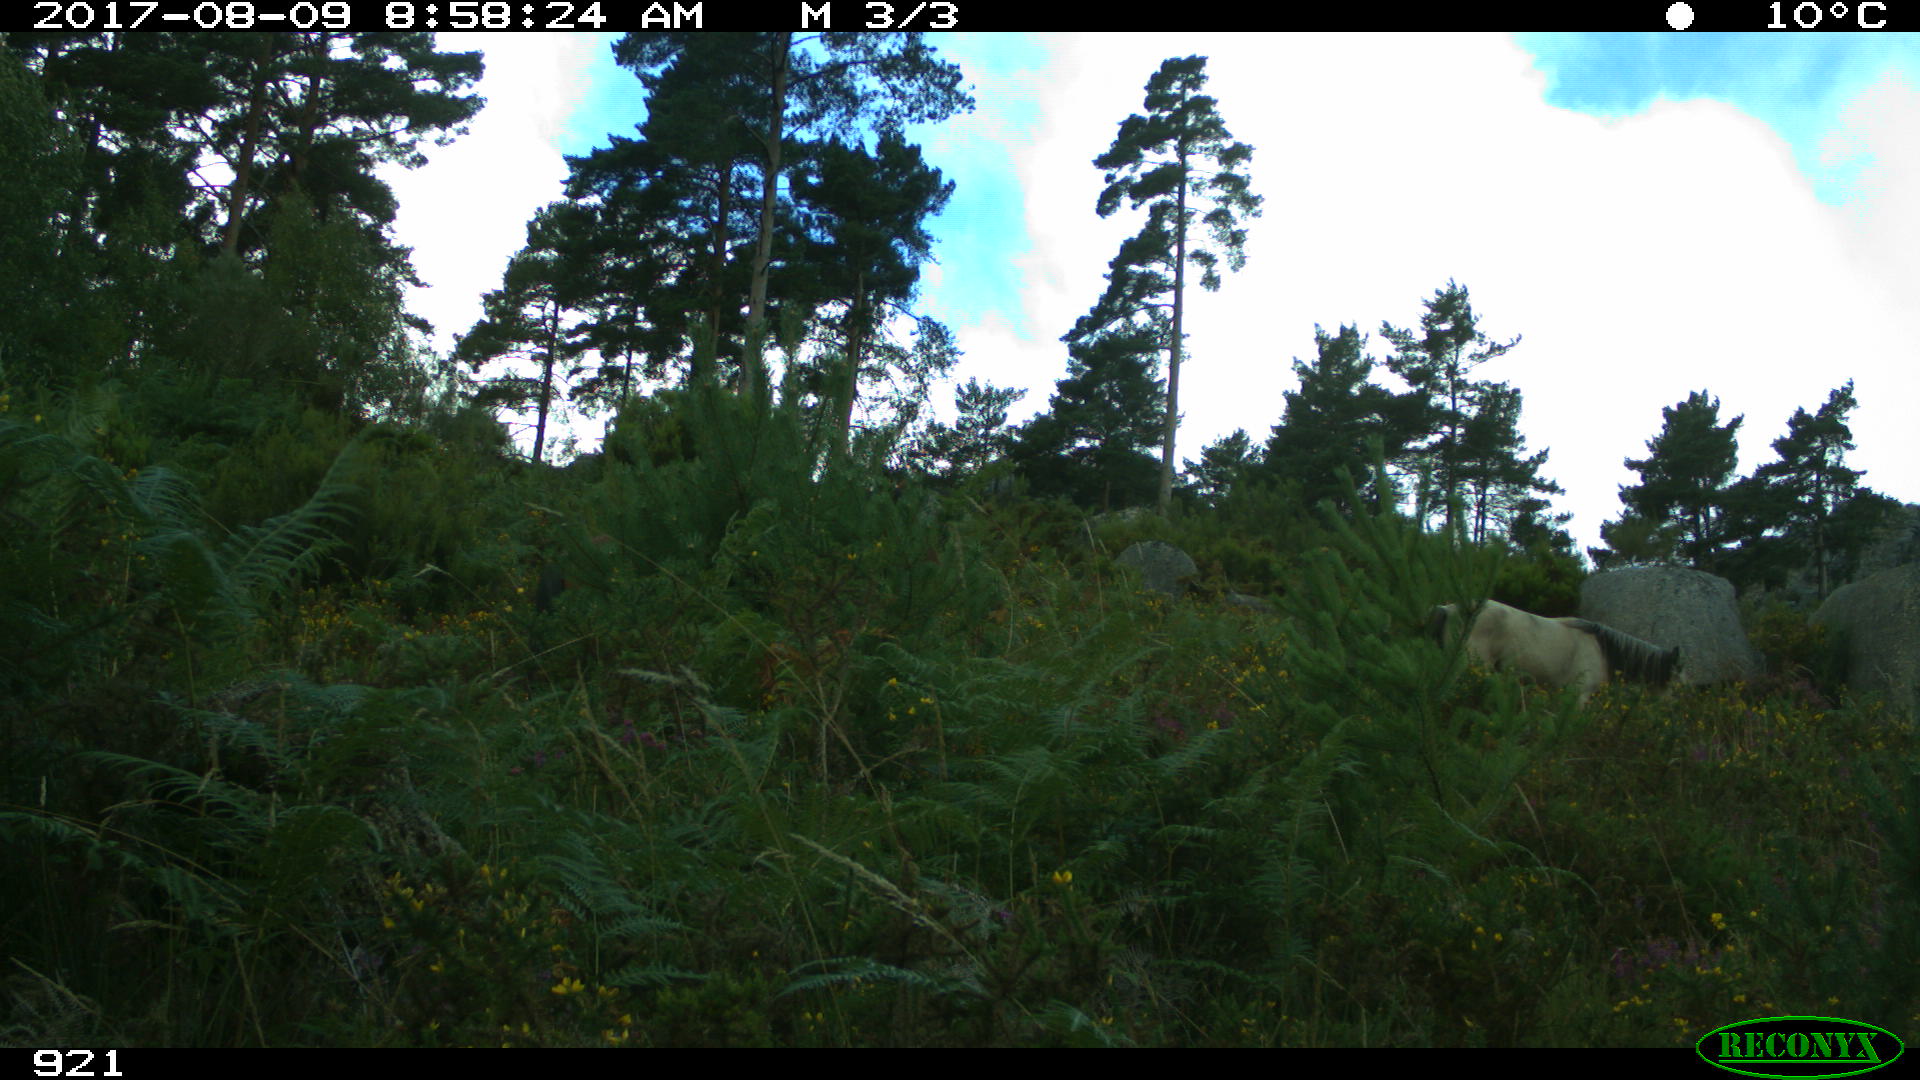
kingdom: Animalia
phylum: Chordata
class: Mammalia
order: Perissodactyla
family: Equidae
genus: Equus
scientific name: Equus caballus
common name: Horse
